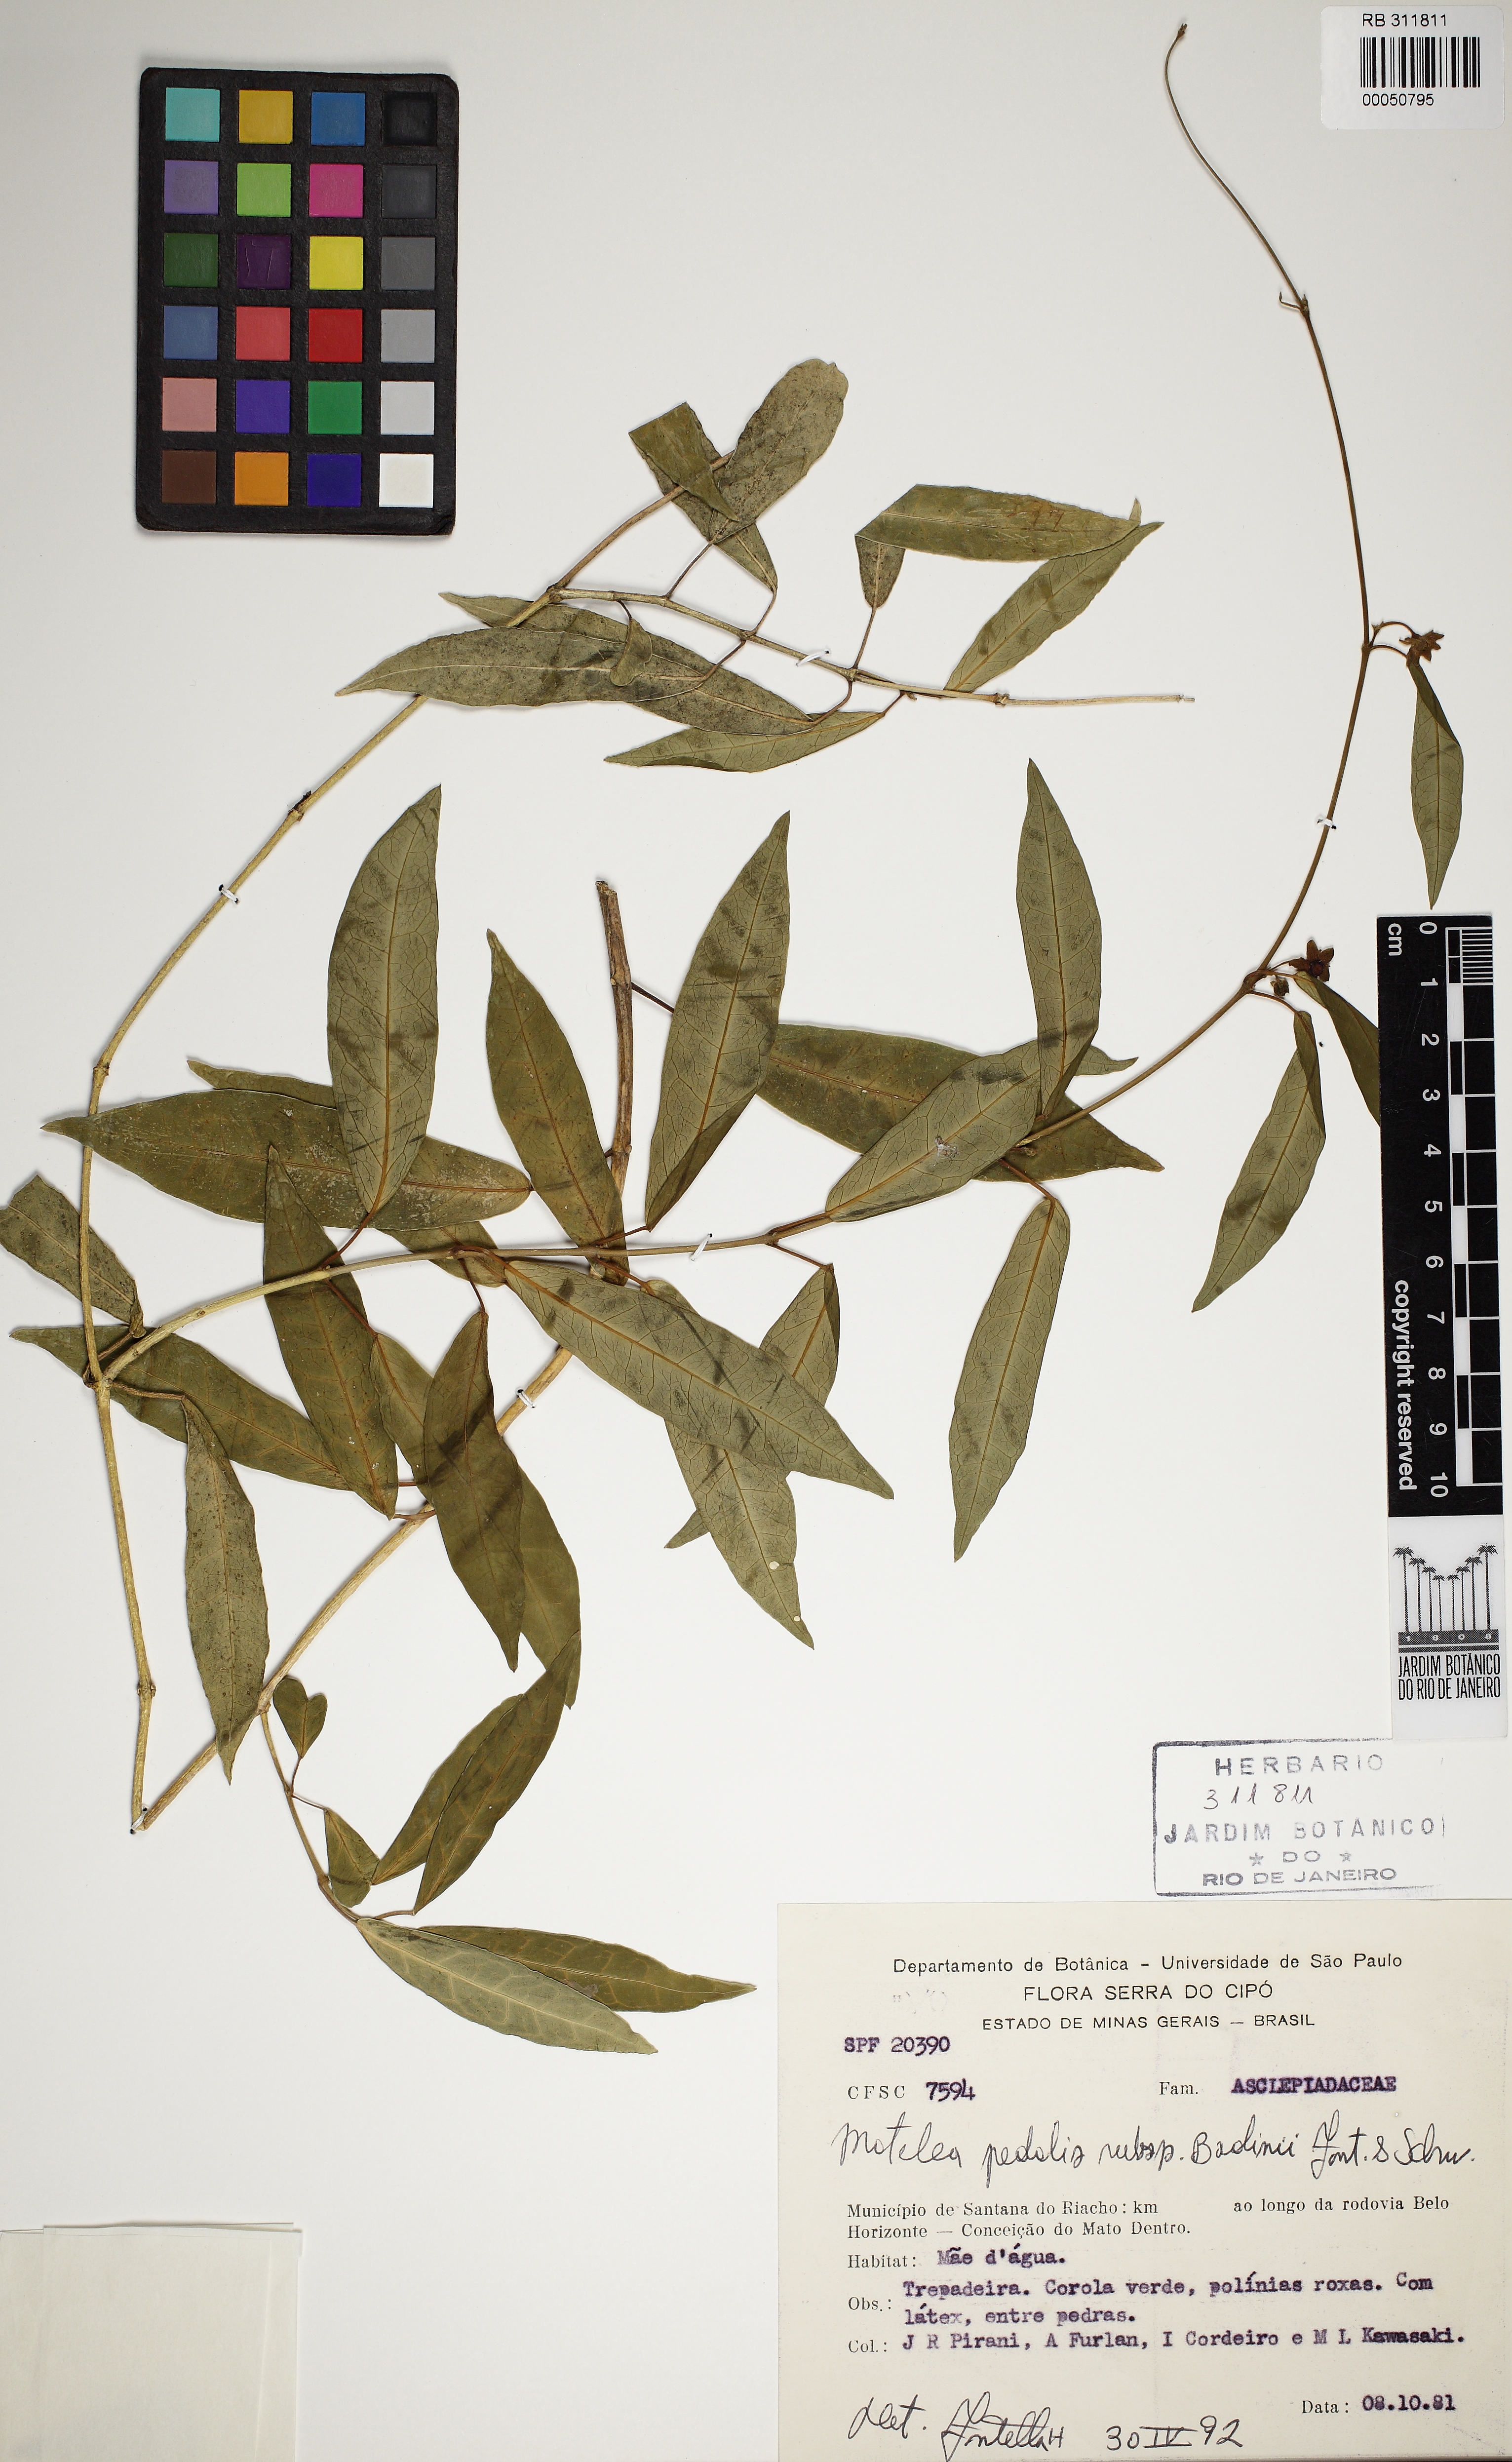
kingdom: Plantae
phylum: Tracheophyta
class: Magnoliopsida
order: Gentianales
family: Apocynaceae
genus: Matelea
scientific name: Matelea pedalis
